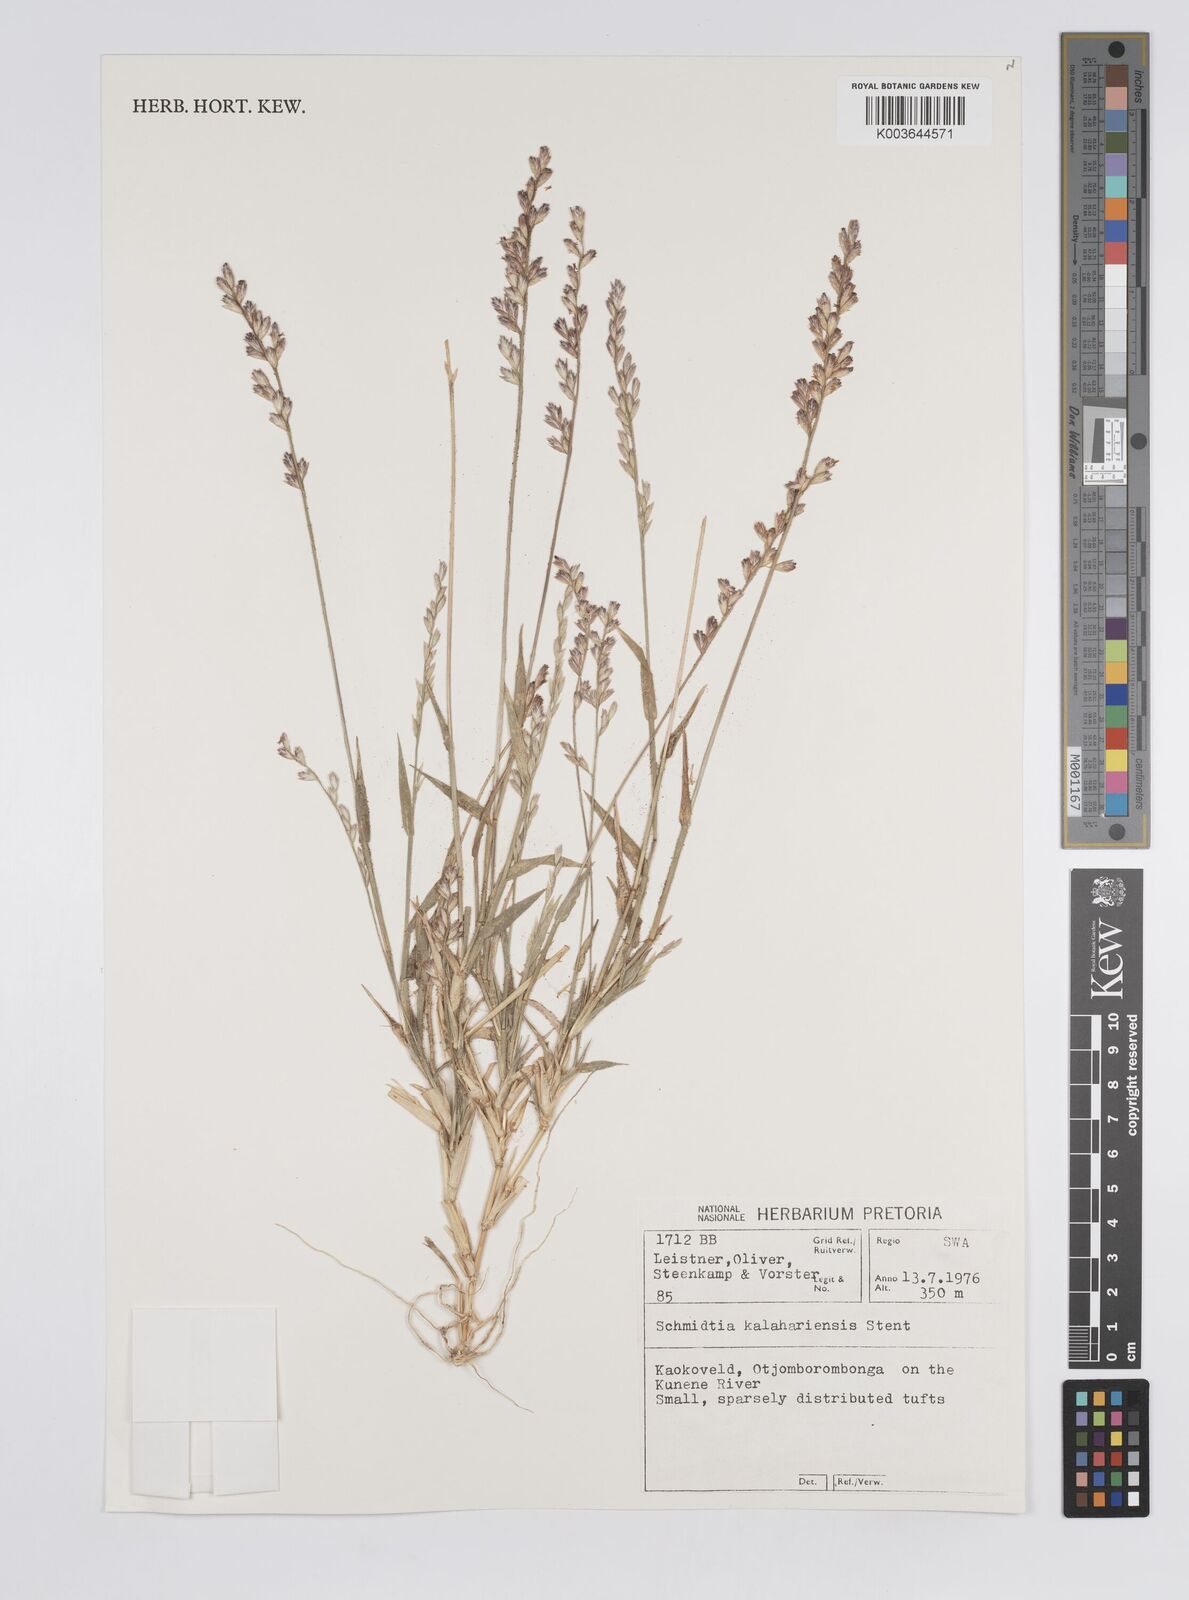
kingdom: Plantae
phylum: Tracheophyta
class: Liliopsida
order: Poales
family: Poaceae
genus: Schmidtia
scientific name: Schmidtia kalahariensis
